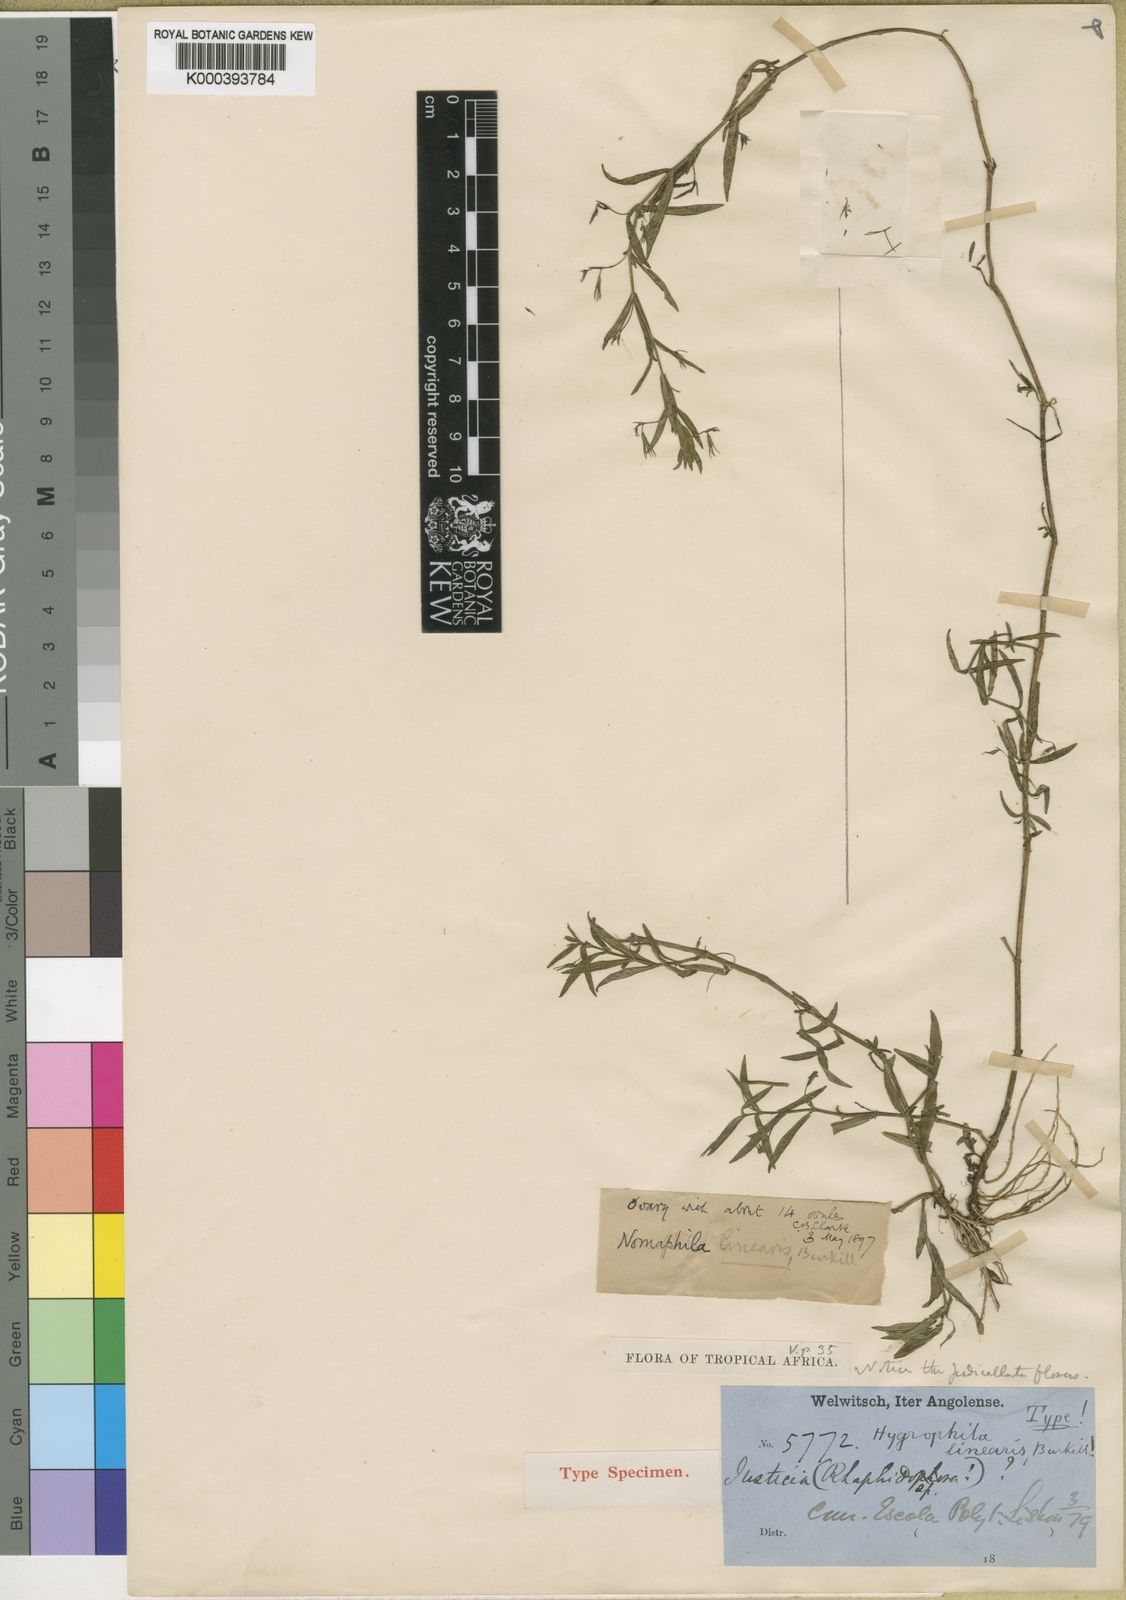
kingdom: Plantae
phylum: Tracheophyta
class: Magnoliopsida
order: Lamiales
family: Acanthaceae
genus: Hygrophila
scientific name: Hygrophila linearis
